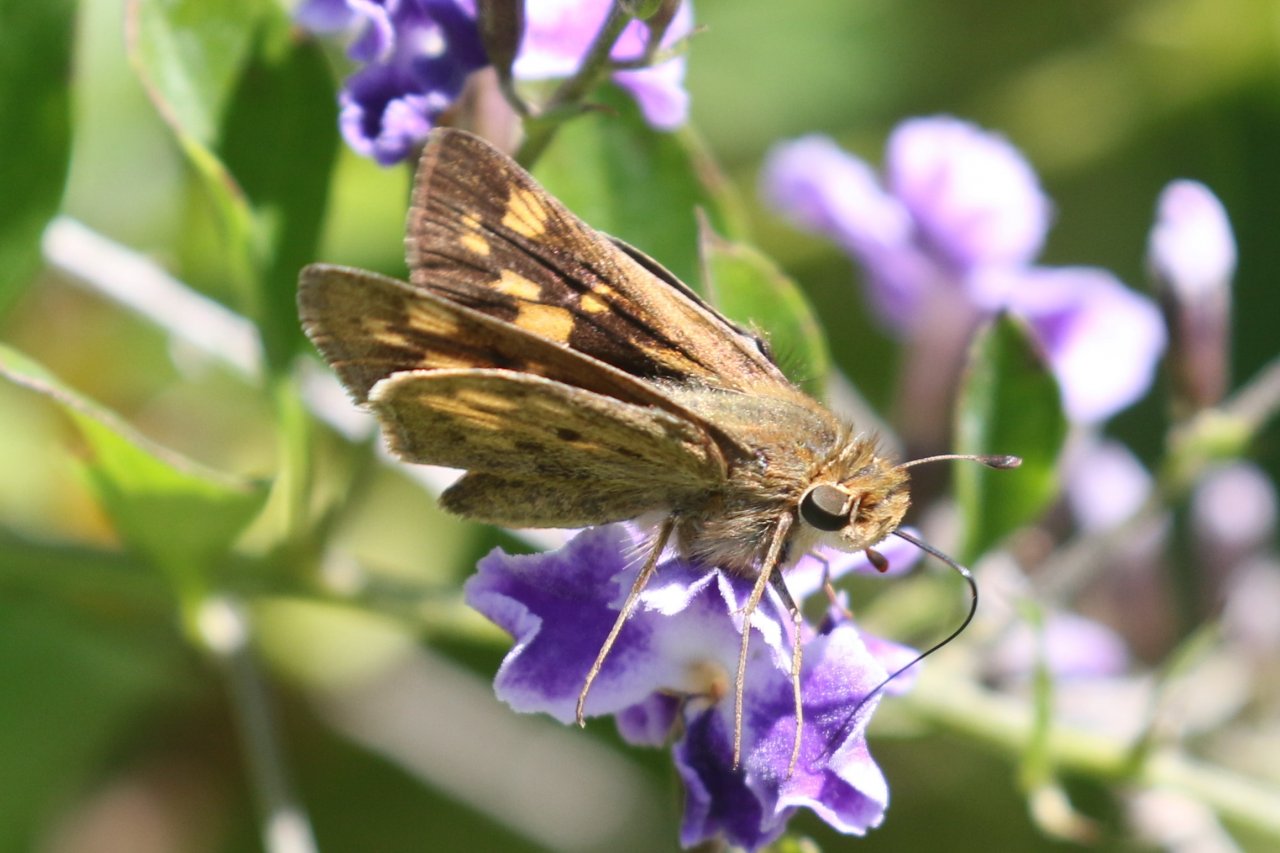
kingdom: Animalia
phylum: Arthropoda
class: Insecta
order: Lepidoptera
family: Hesperiidae
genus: Hylephila
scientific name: Hylephila phyleus
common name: Fiery Skipper
